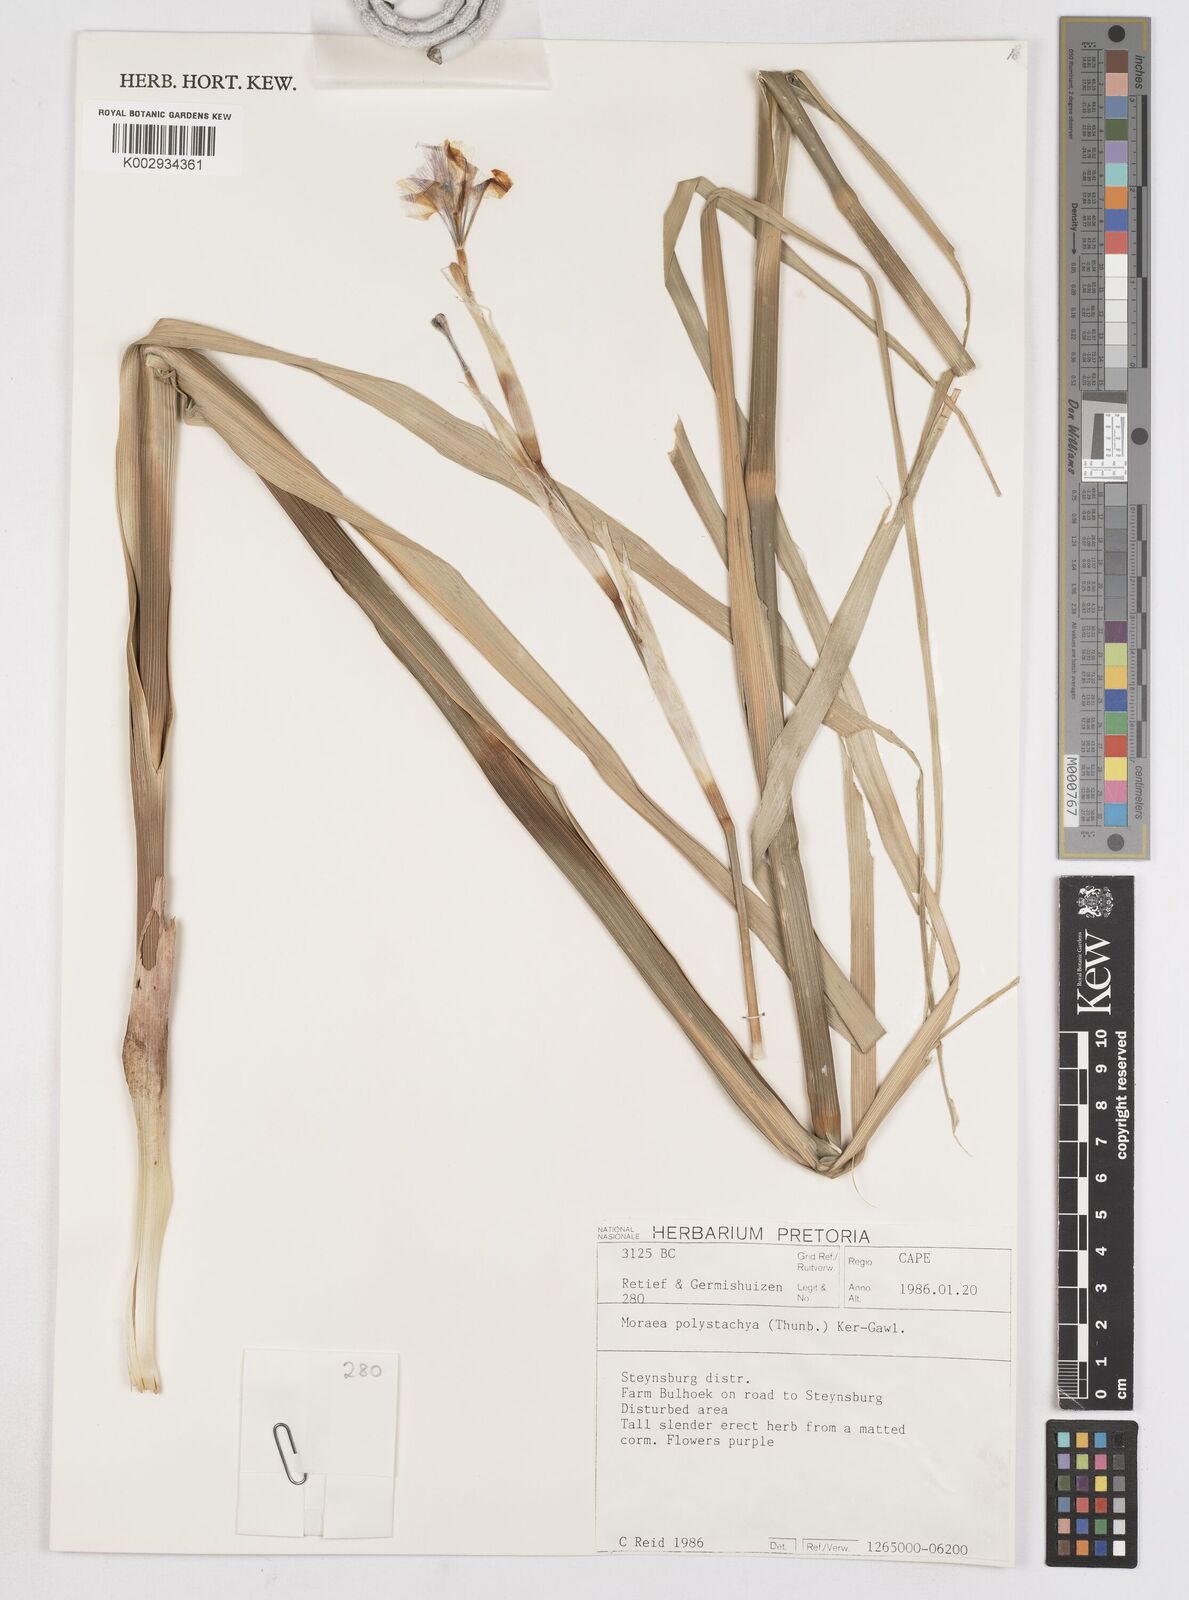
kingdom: Plantae
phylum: Tracheophyta
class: Liliopsida
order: Asparagales
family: Iridaceae
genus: Moraea
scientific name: Moraea polystachya
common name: Blue-tulip
